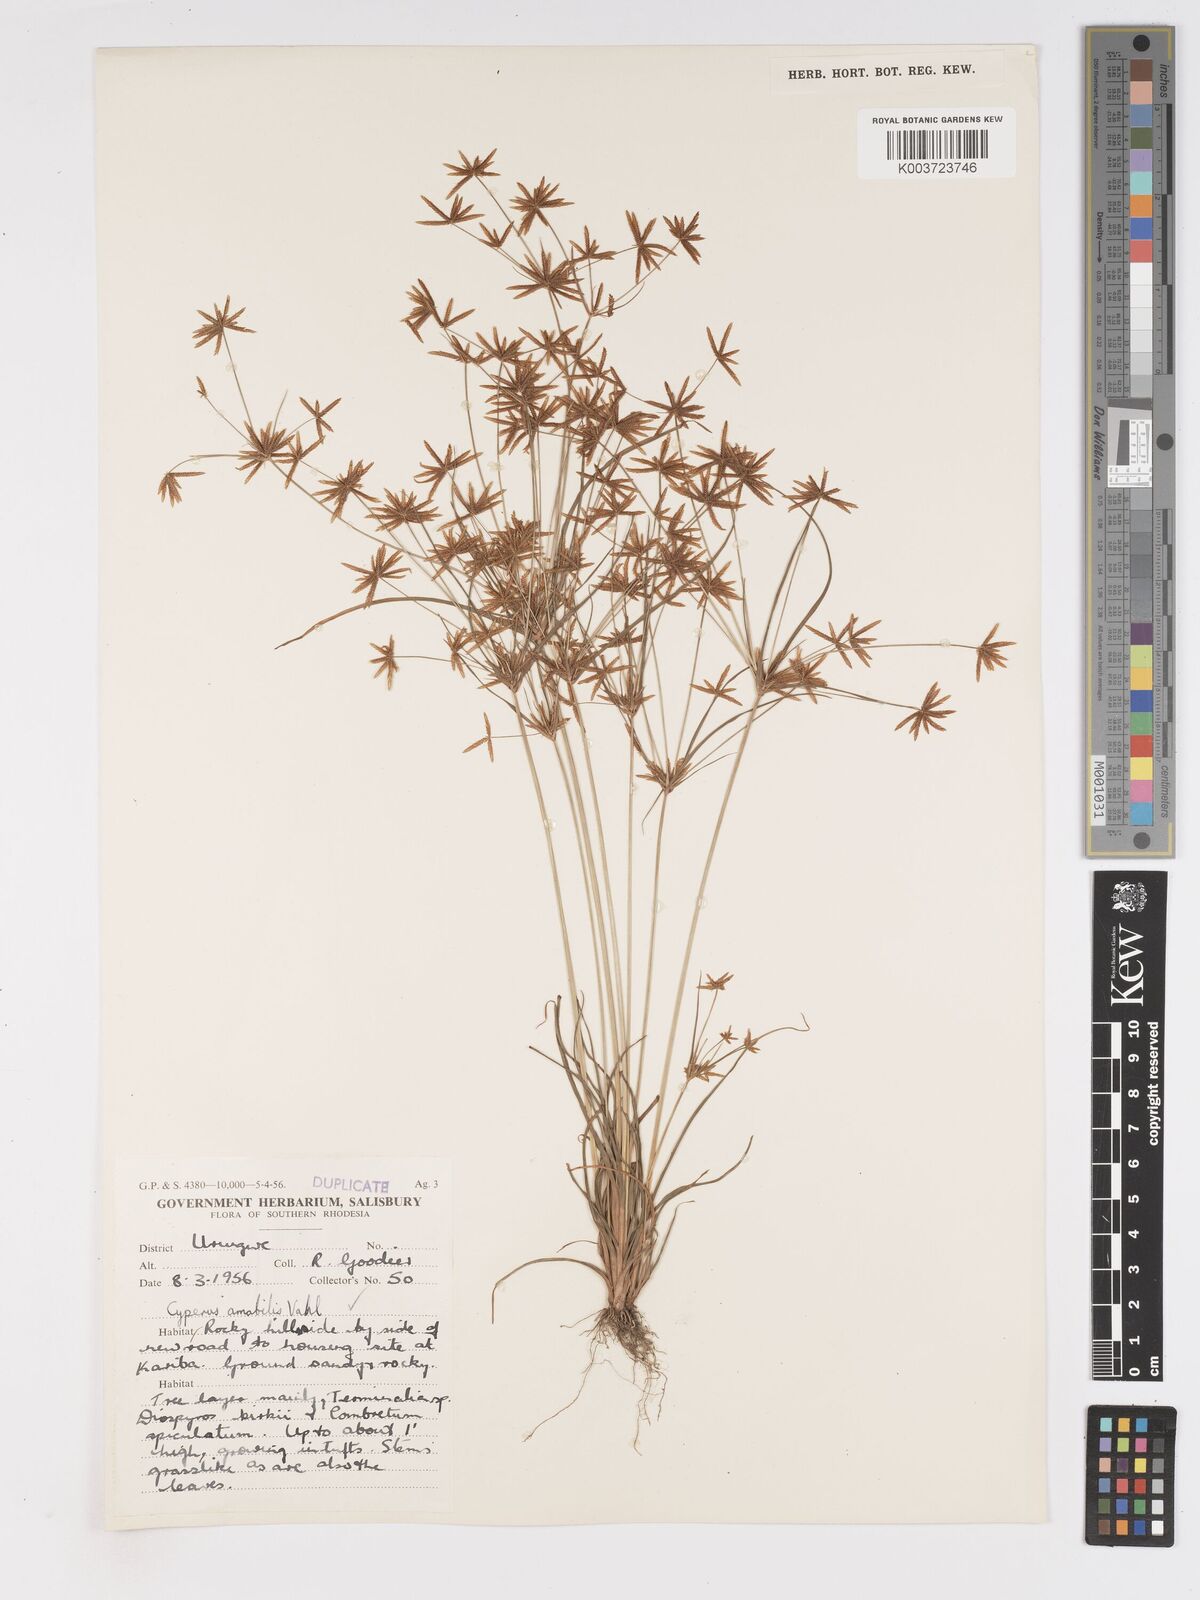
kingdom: Plantae
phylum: Tracheophyta
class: Liliopsida
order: Poales
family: Cyperaceae
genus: Cyperus
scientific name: Cyperus amabilis
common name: Foothill flat sedge
